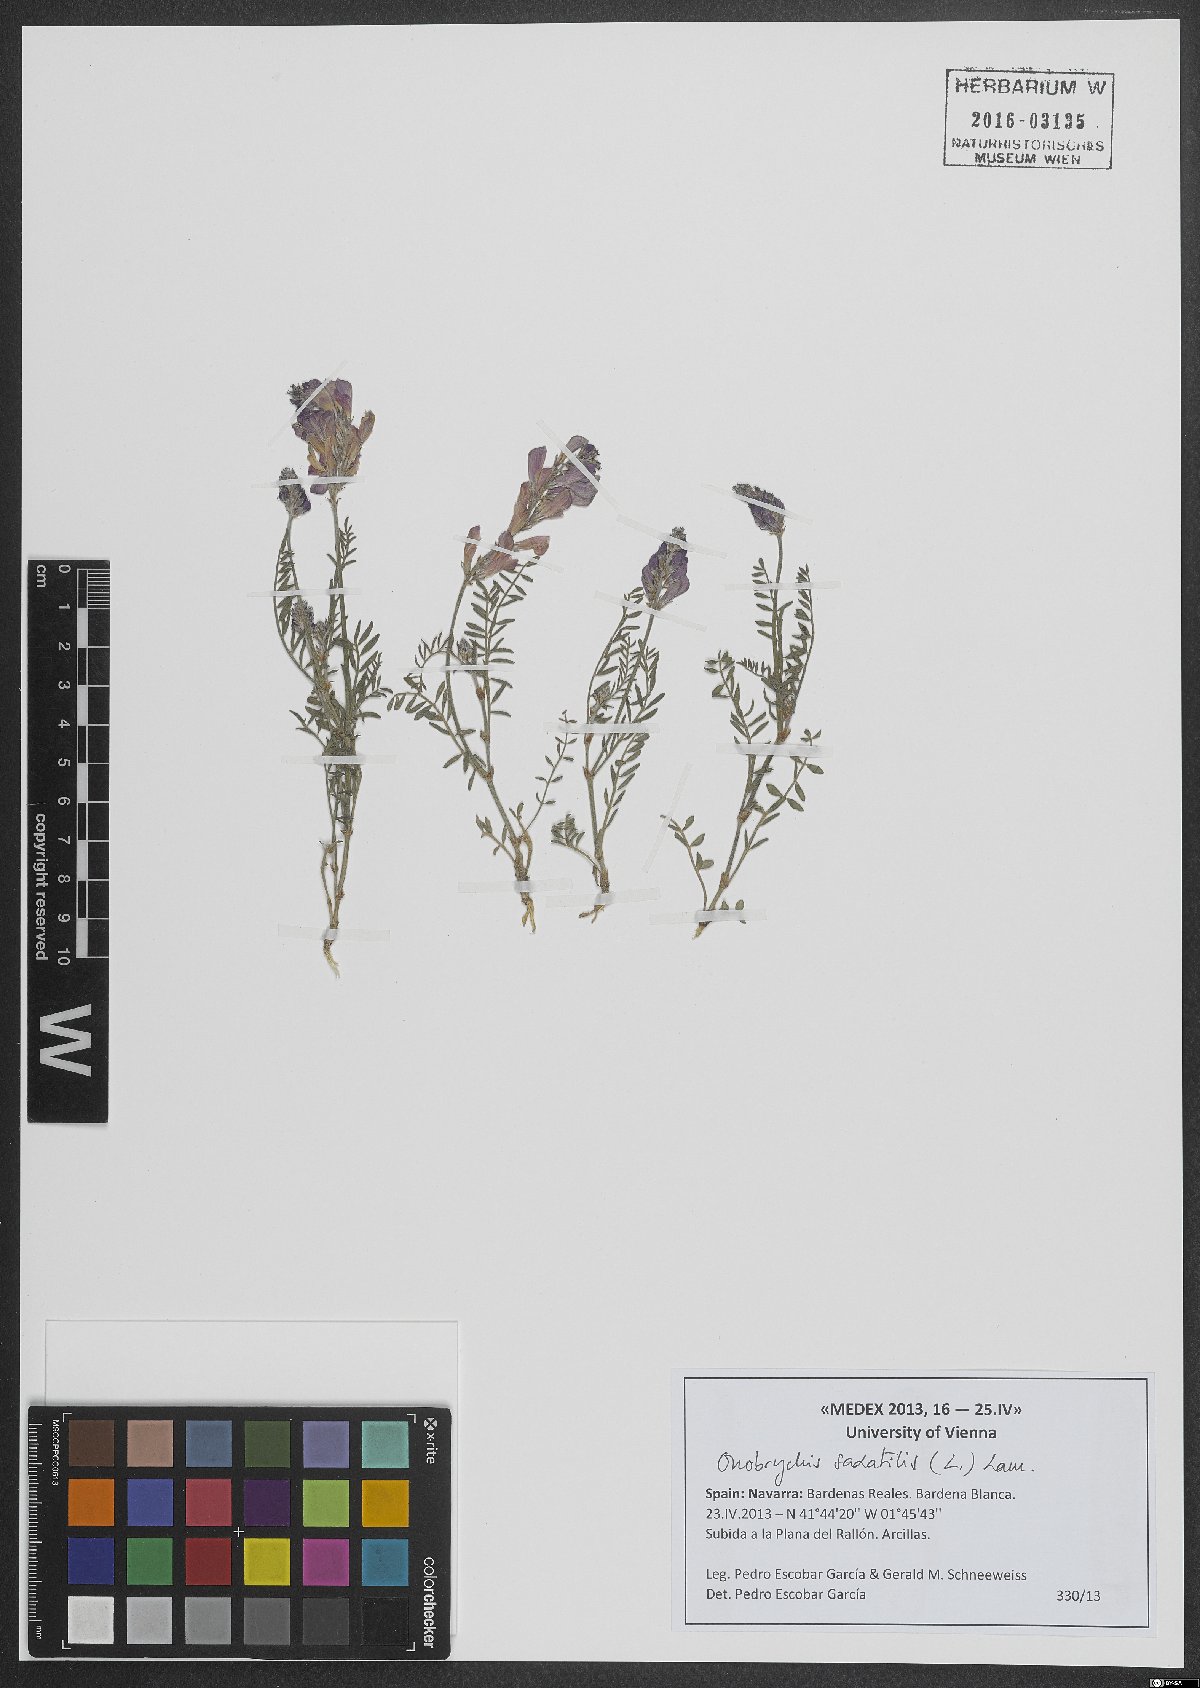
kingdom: Plantae
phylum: Tracheophyta
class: Magnoliopsida
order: Fabales
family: Fabaceae
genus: Onobrychis
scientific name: Onobrychis saxatilis
